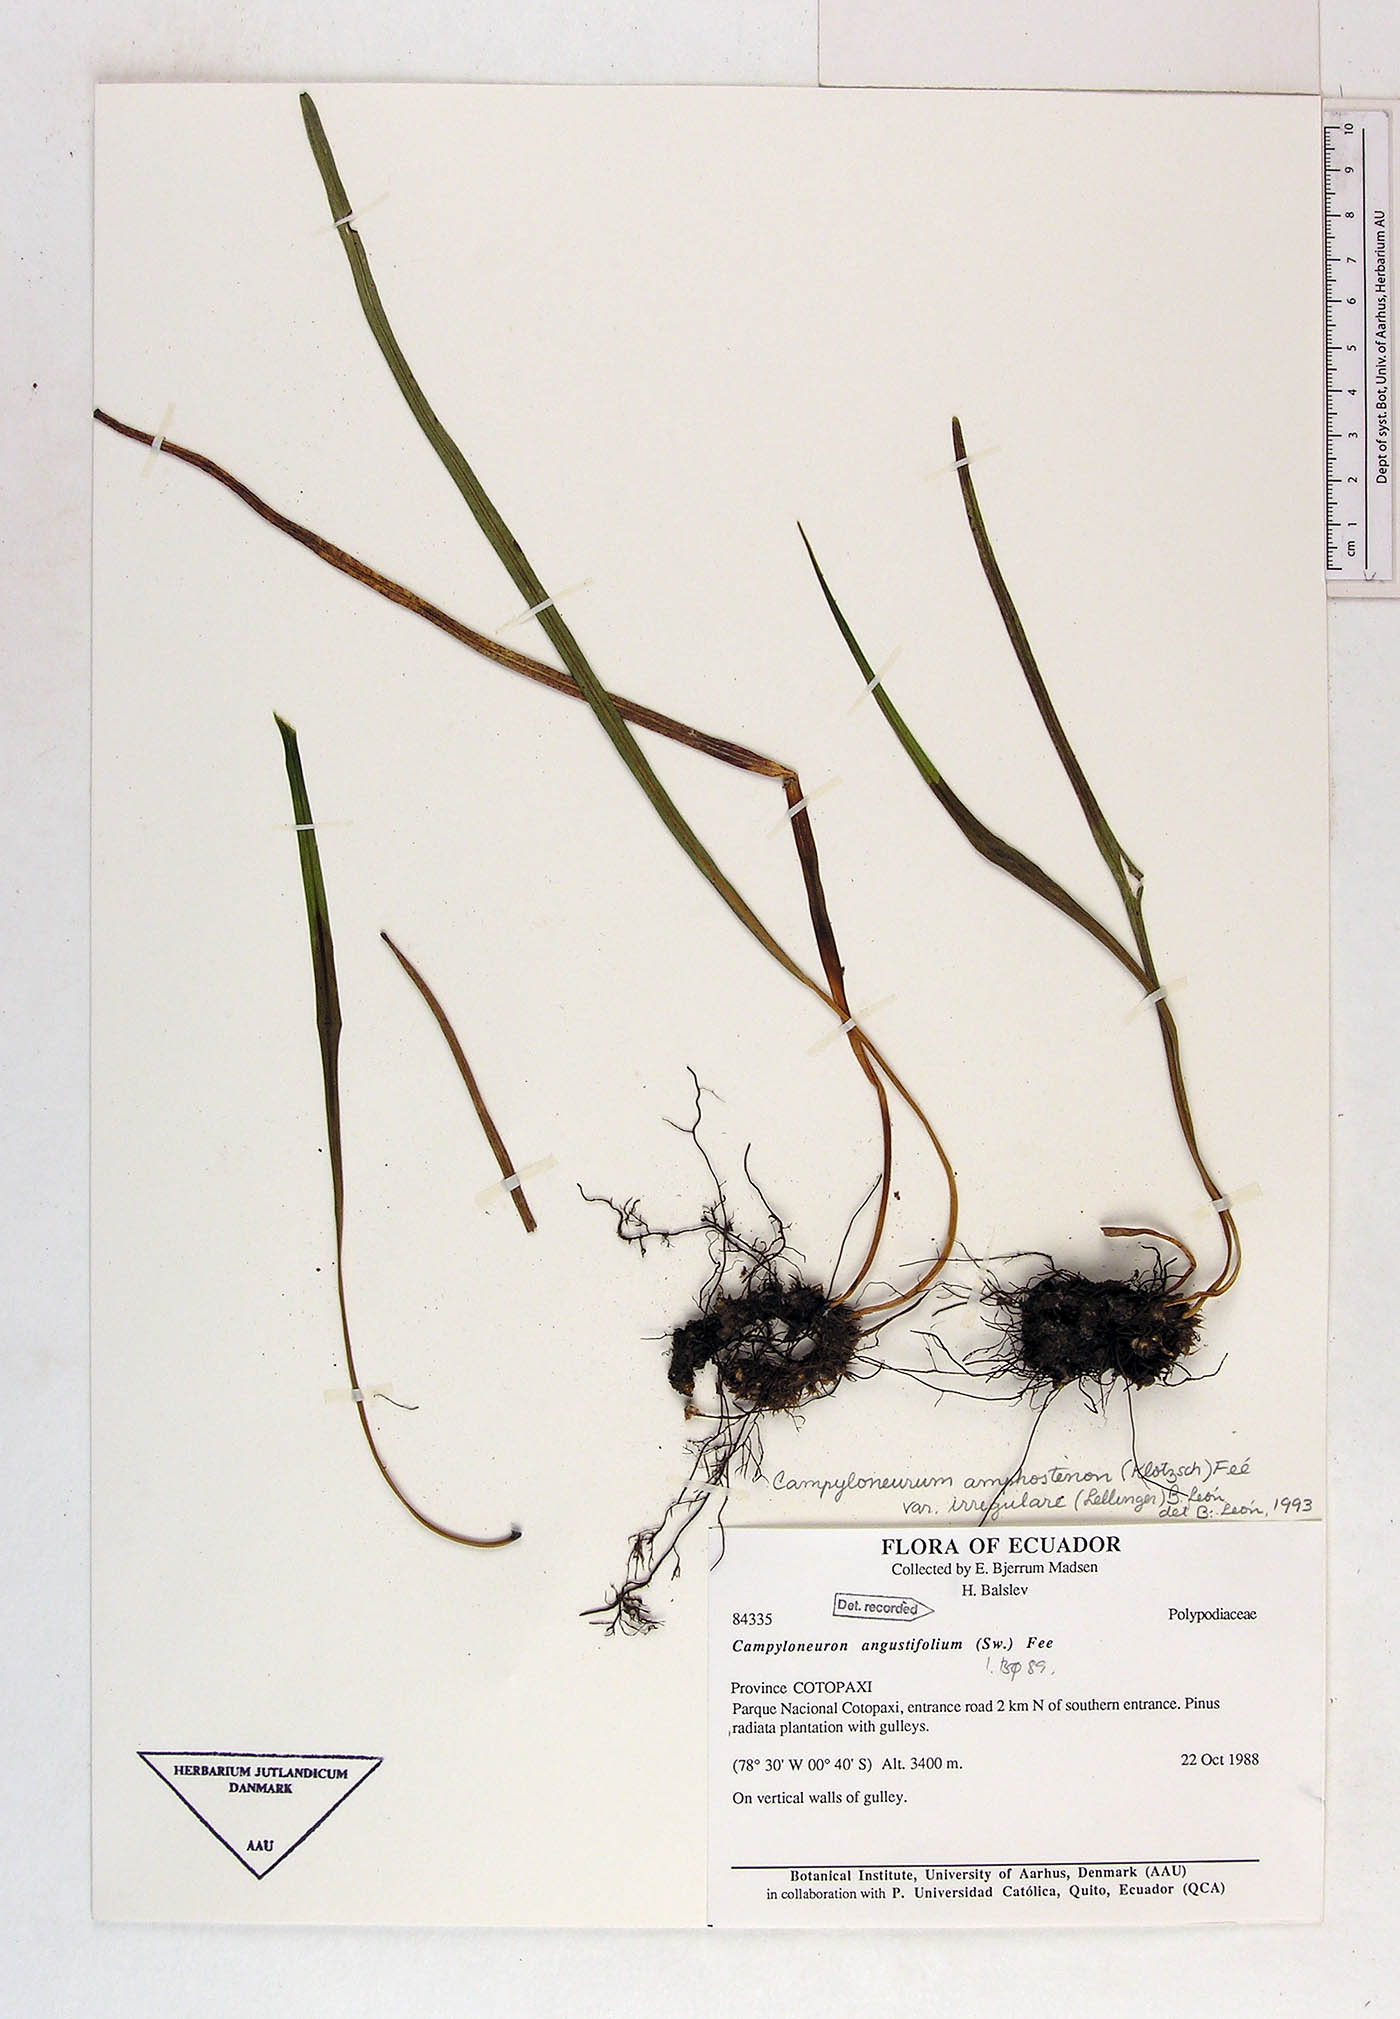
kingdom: Plantae
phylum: Tracheophyta
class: Polypodiopsida
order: Polypodiales
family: Polypodiaceae
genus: Campyloneurum
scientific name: Campyloneurum angustifolium
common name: Narrow-leaf strap fern
